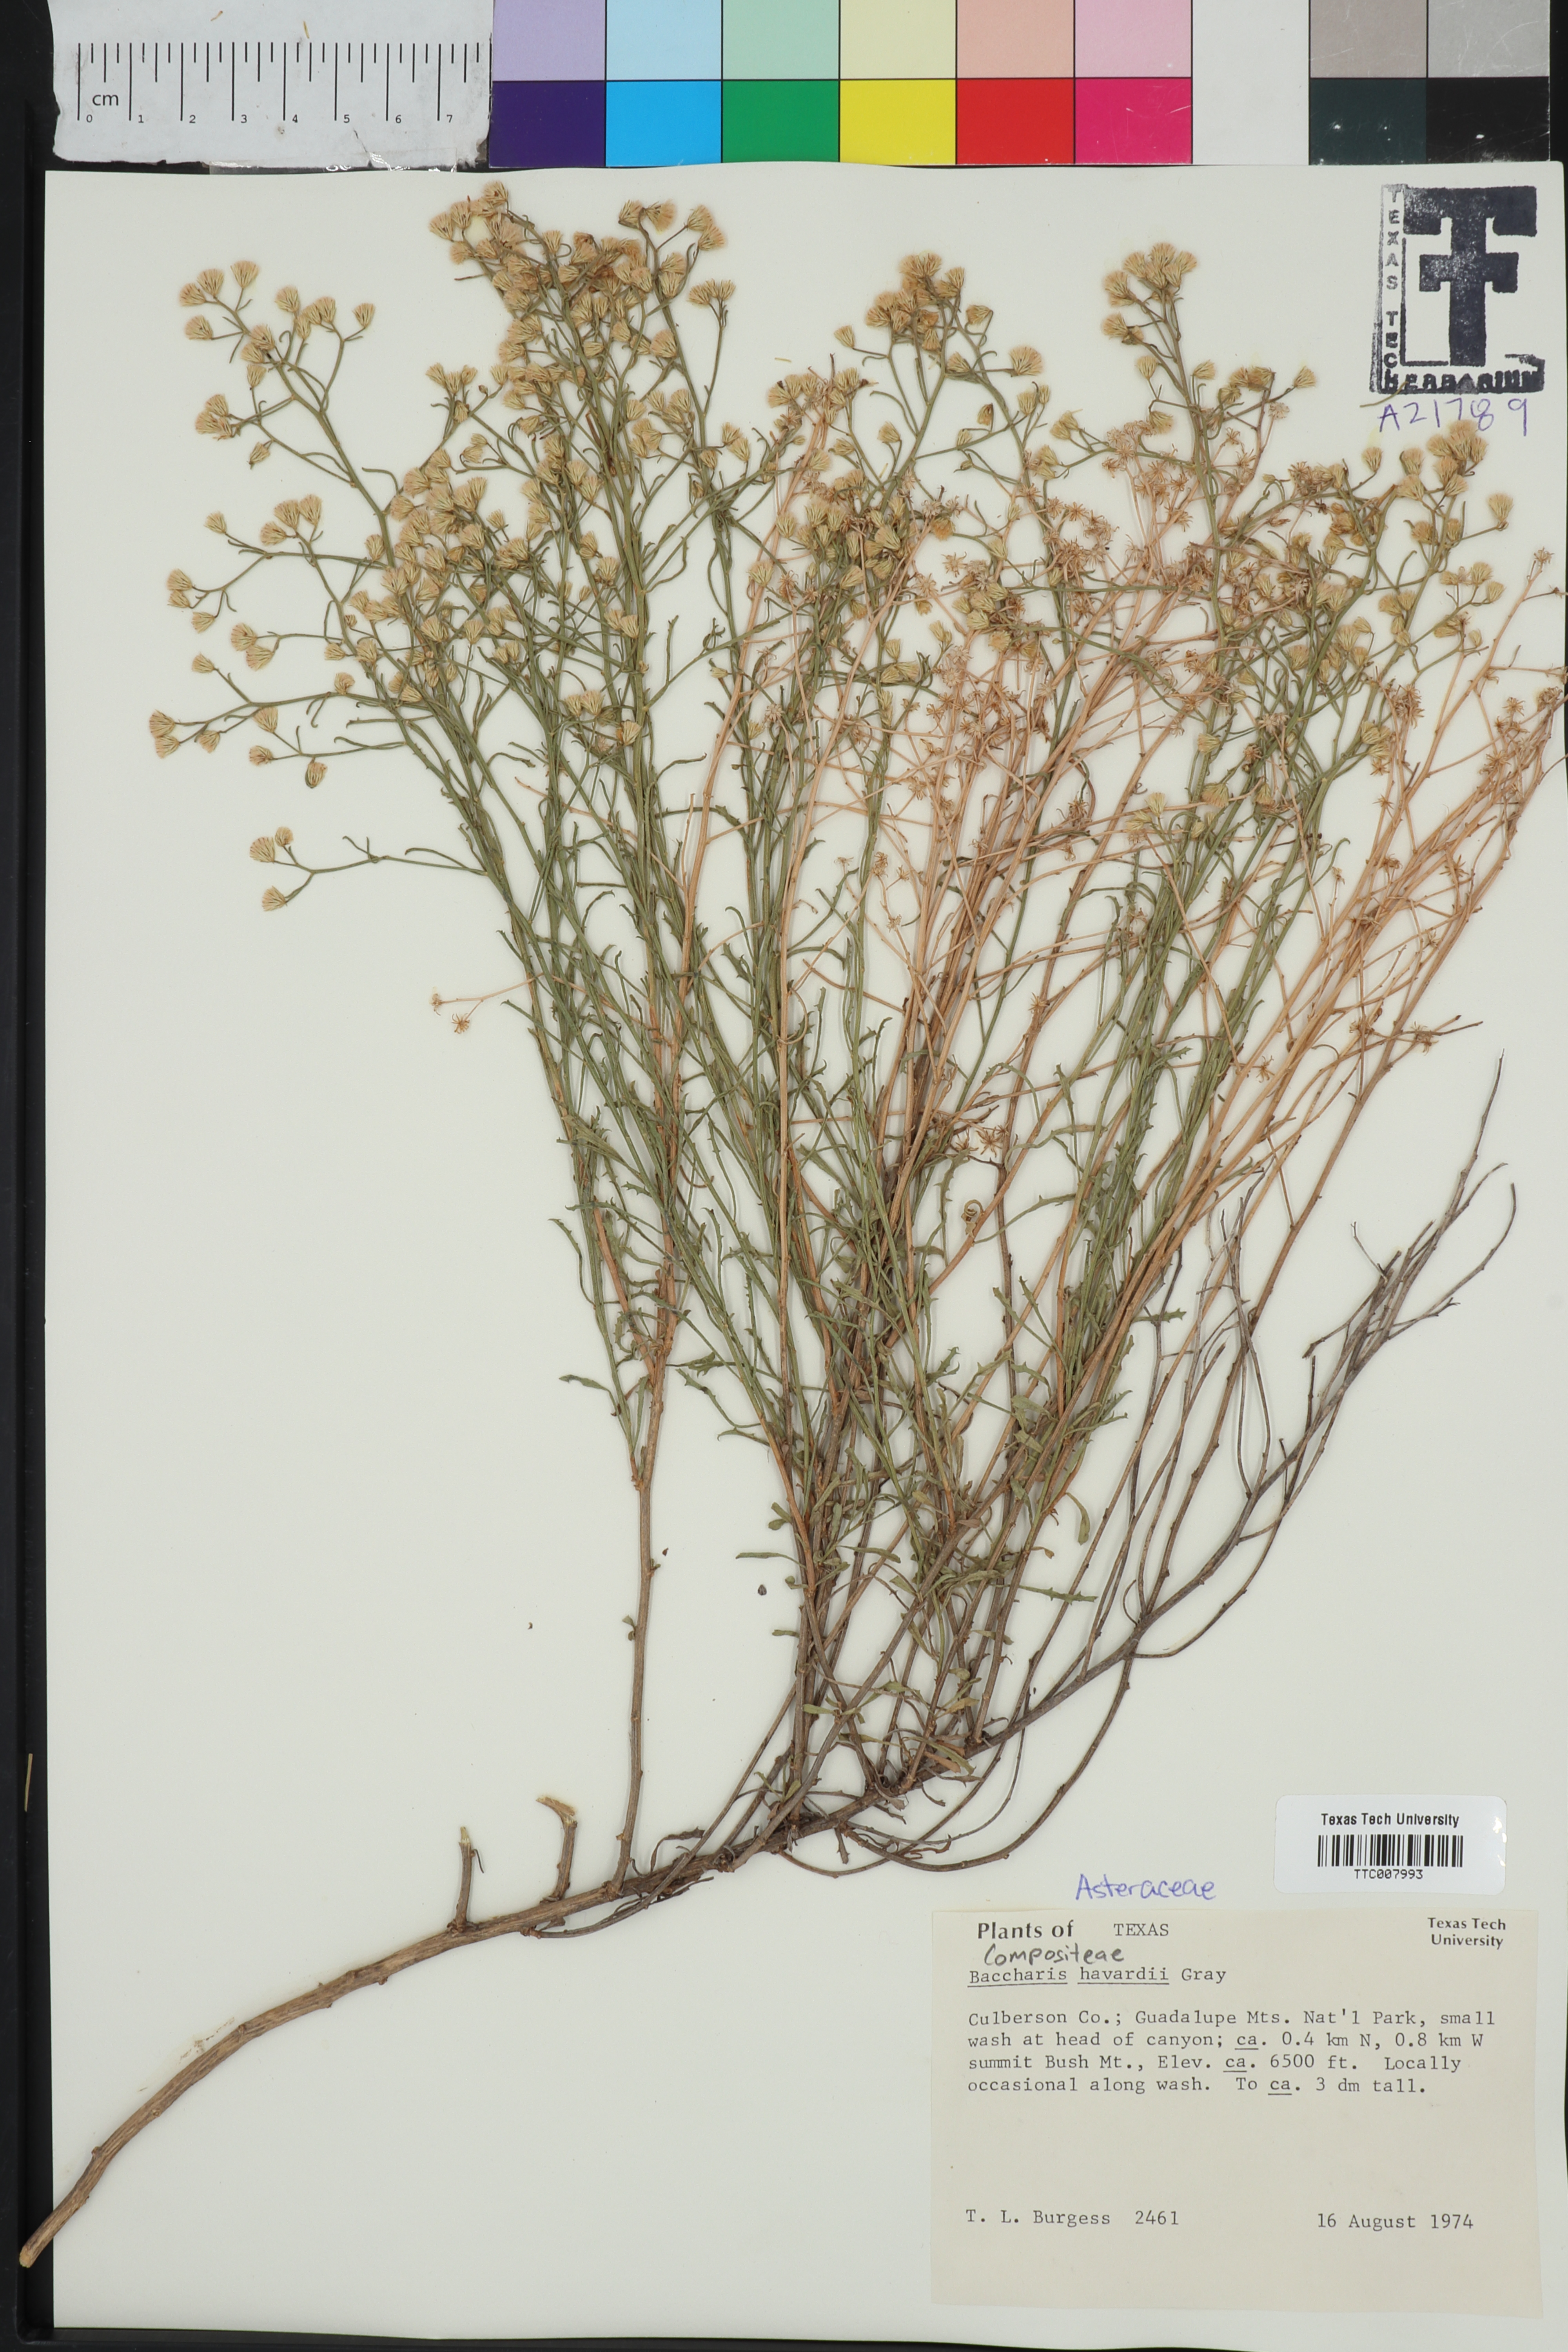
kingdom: Plantae
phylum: Tracheophyta
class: Magnoliopsida
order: Asterales
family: Asteraceae
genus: Baccharis
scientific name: Baccharis havardii
